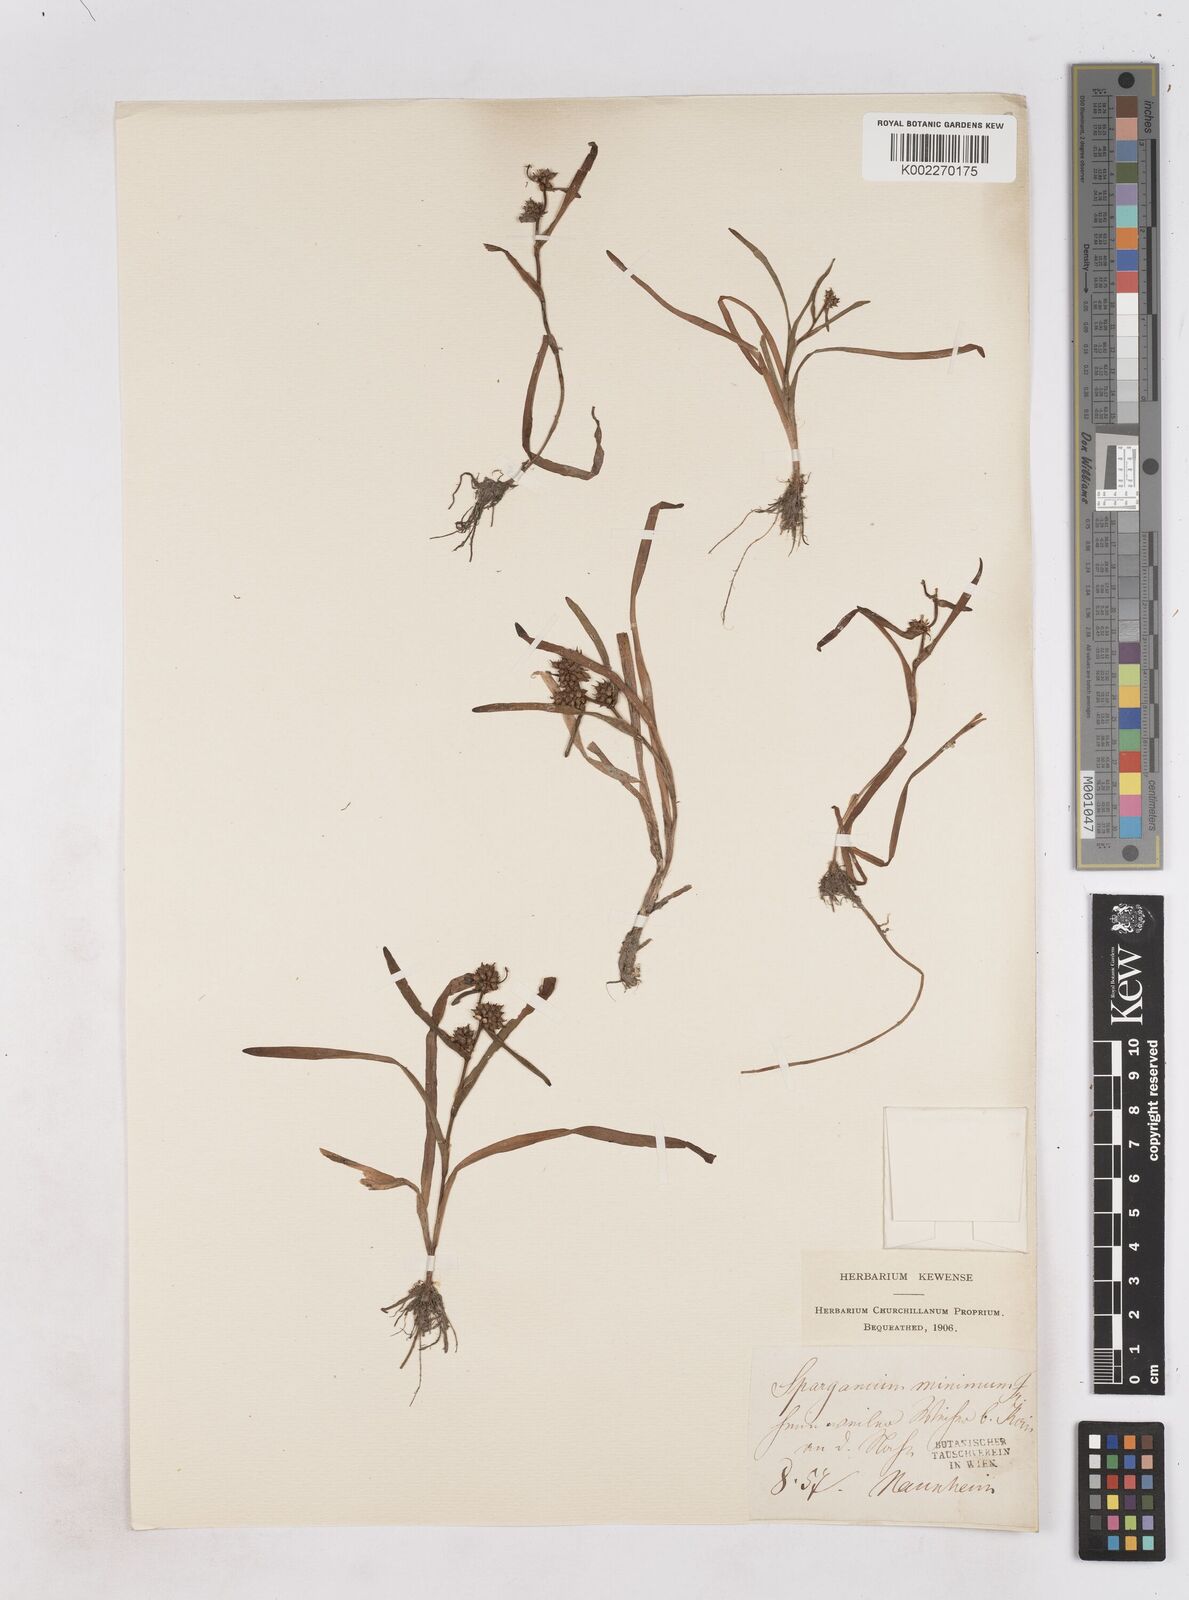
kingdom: Plantae
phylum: Tracheophyta
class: Liliopsida
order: Poales
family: Typhaceae
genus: Sparganium
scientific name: Sparganium natans
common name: Least bur-reed
